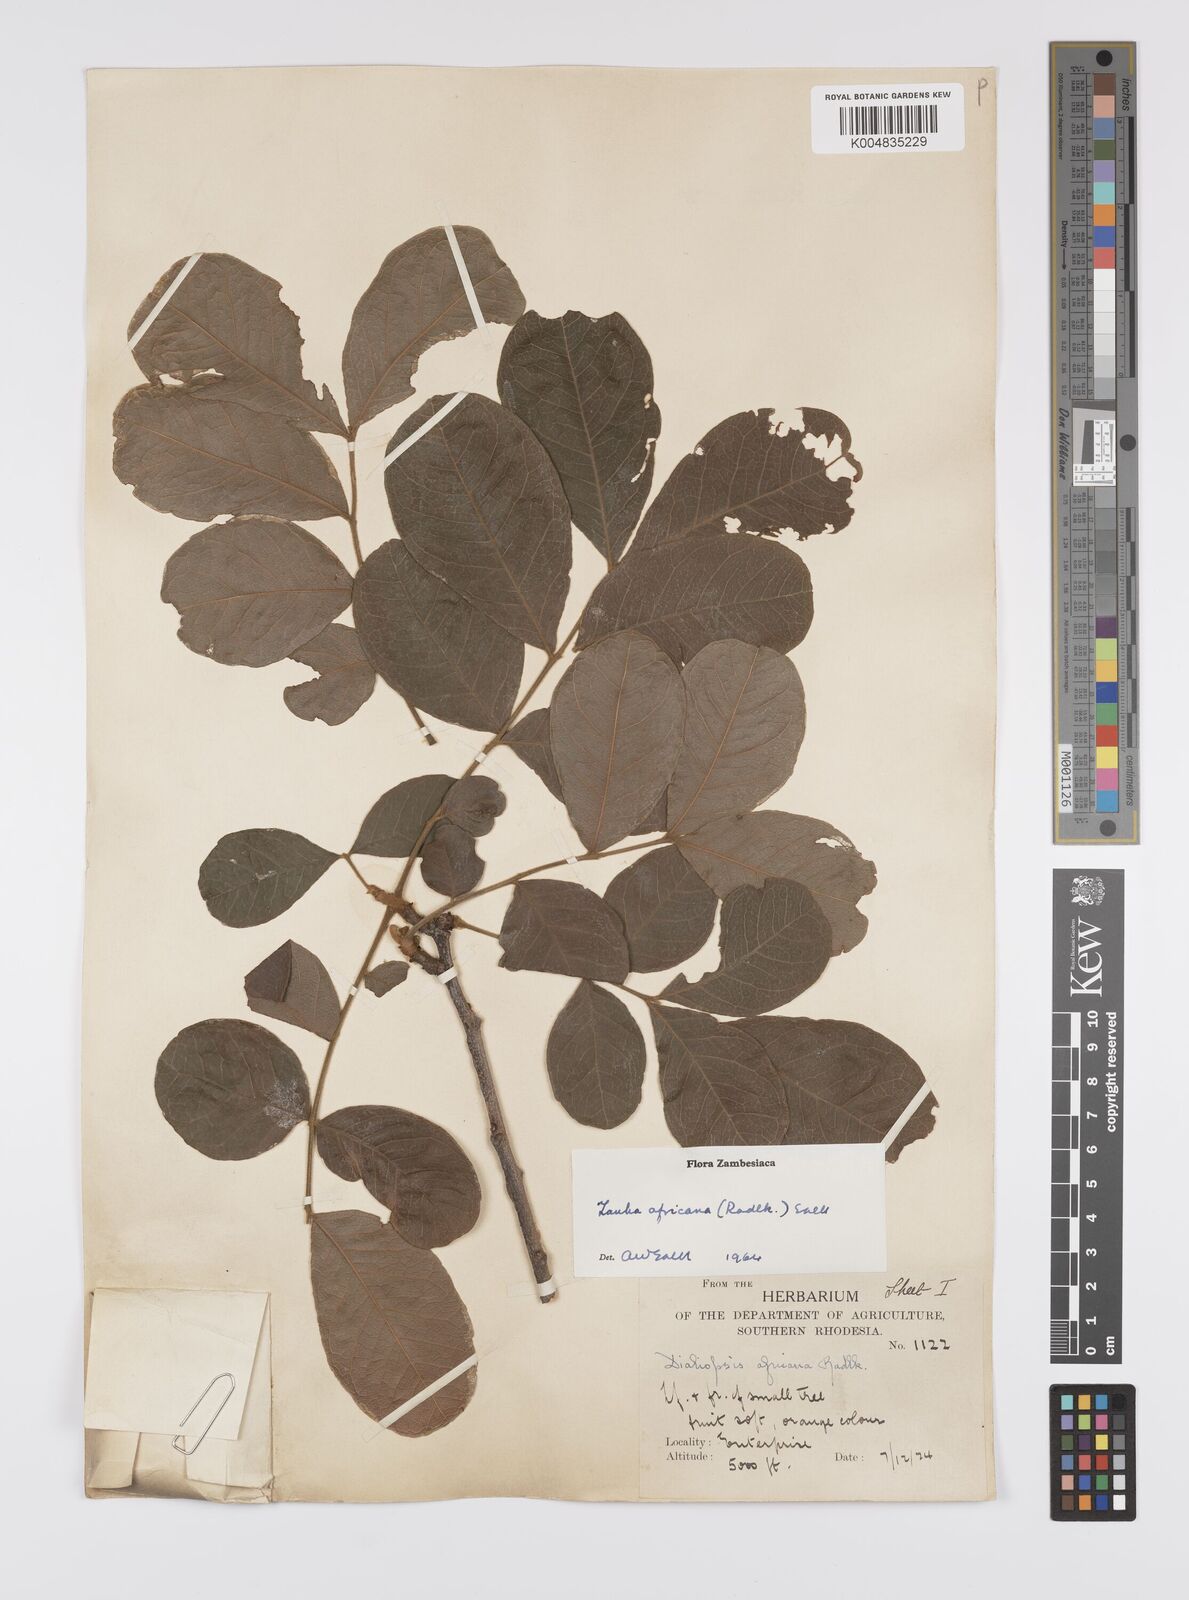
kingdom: Plantae
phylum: Tracheophyta
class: Magnoliopsida
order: Sapindales
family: Sapindaceae
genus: Zanha
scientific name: Zanha africana
